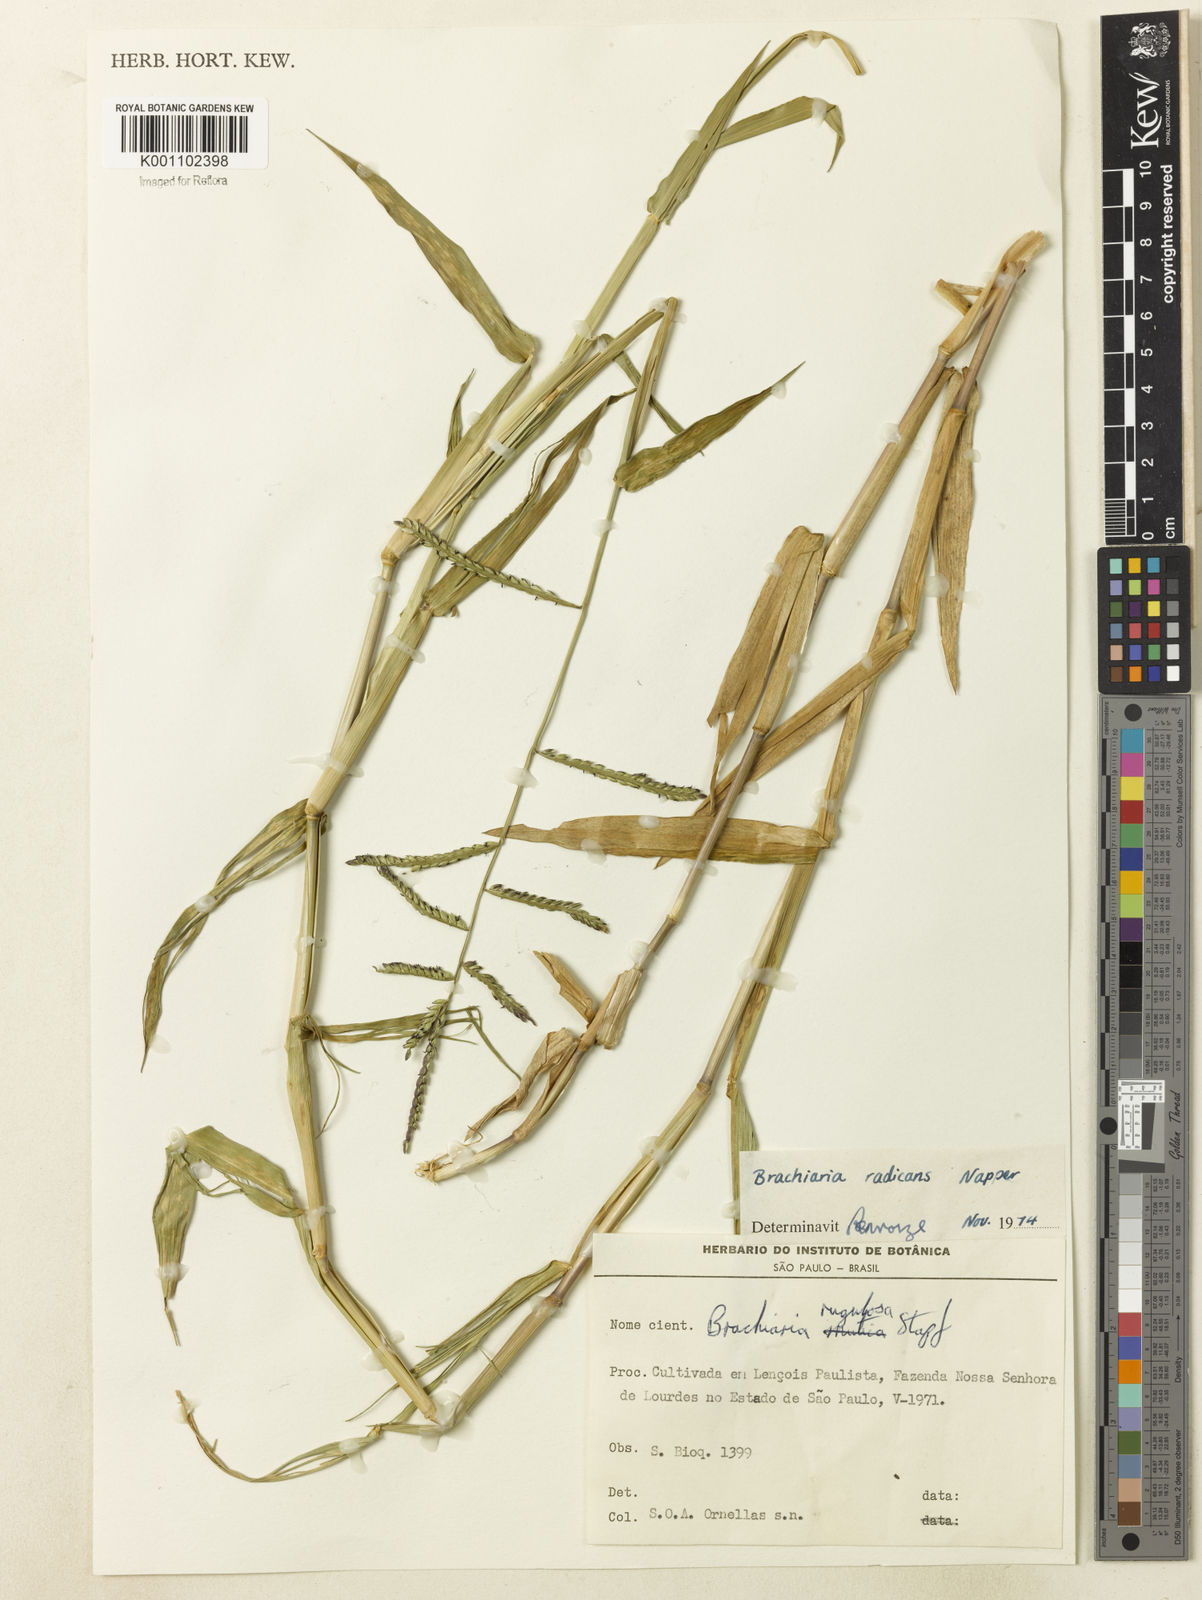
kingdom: Plantae
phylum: Tracheophyta
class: Liliopsida
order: Poales
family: Poaceae
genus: Urochloa
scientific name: Urochloa arrecta
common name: African signalgrass
